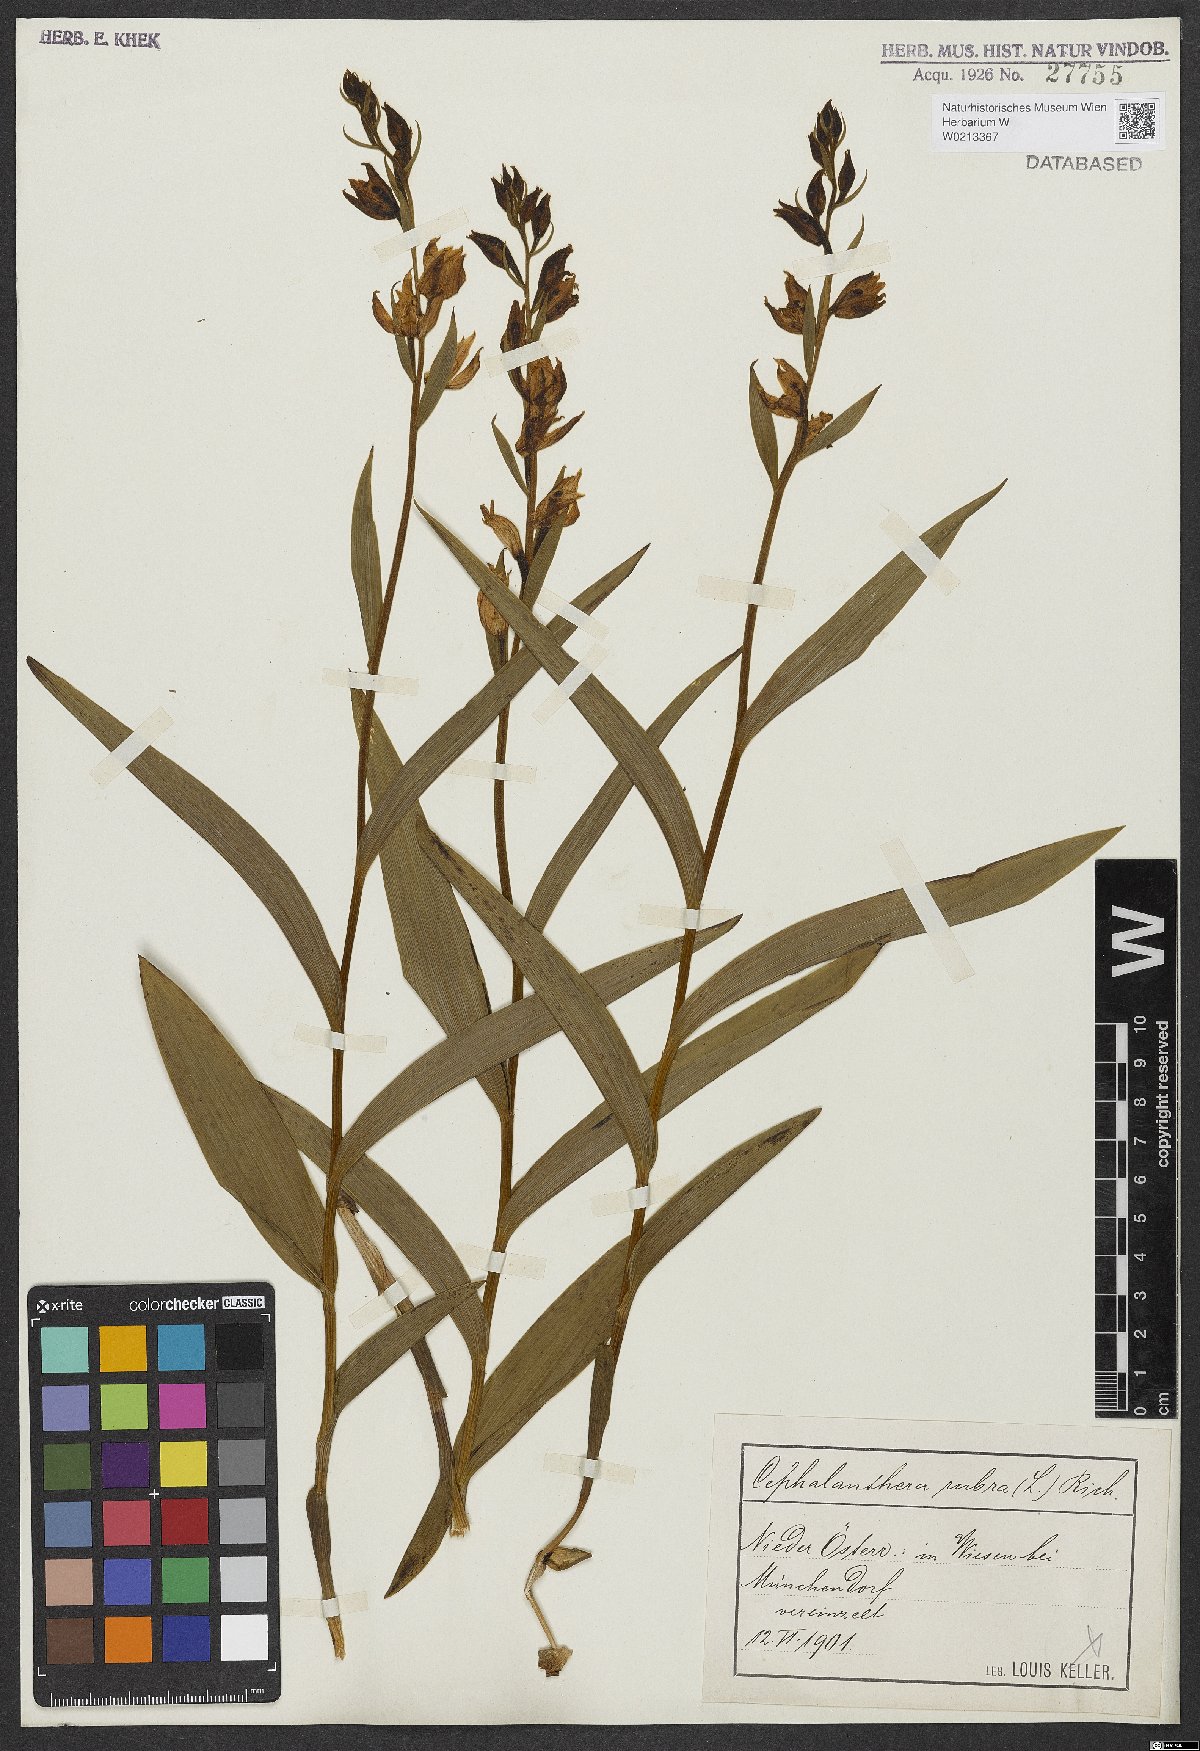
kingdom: Plantae
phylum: Tracheophyta
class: Liliopsida
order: Asparagales
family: Orchidaceae
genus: Cephalanthera
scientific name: Cephalanthera rubra
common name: Red helleborine
